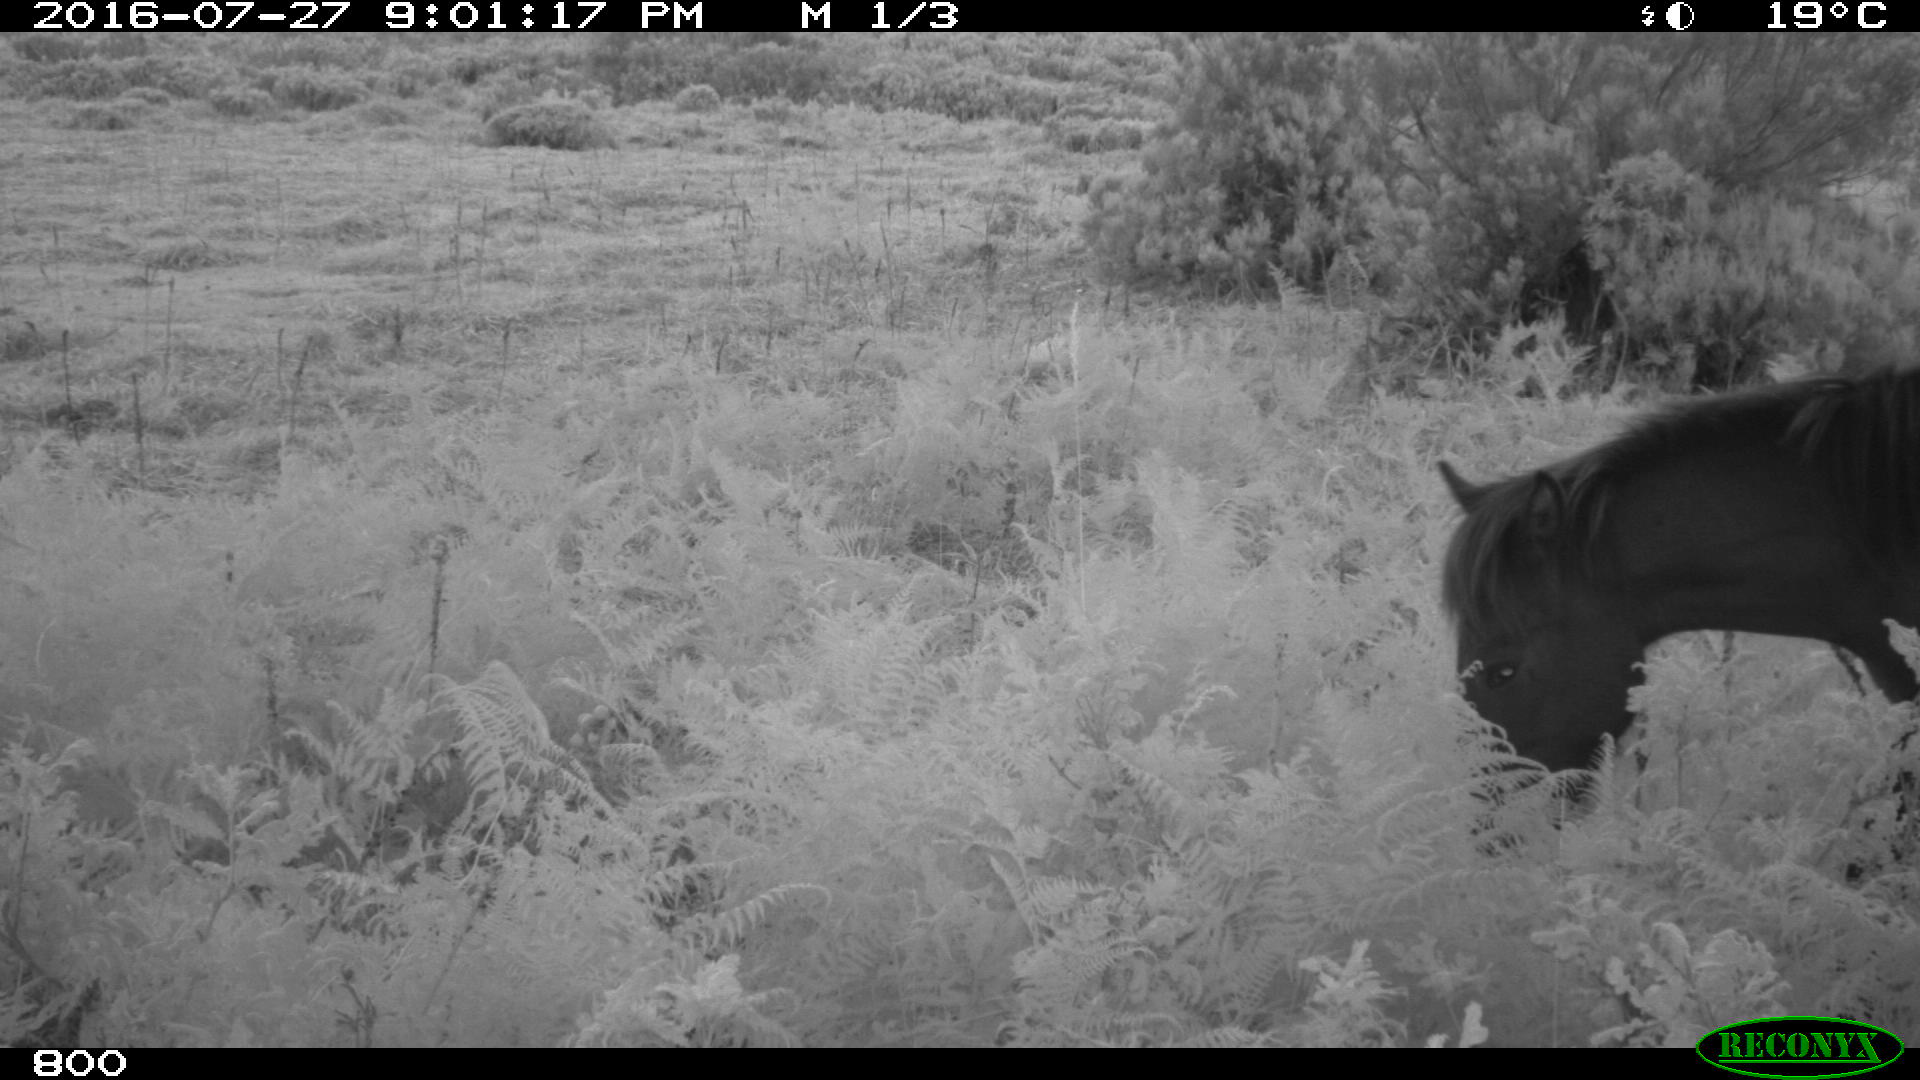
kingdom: Animalia
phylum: Chordata
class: Mammalia
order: Perissodactyla
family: Equidae
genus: Equus
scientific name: Equus caballus
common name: Horse
